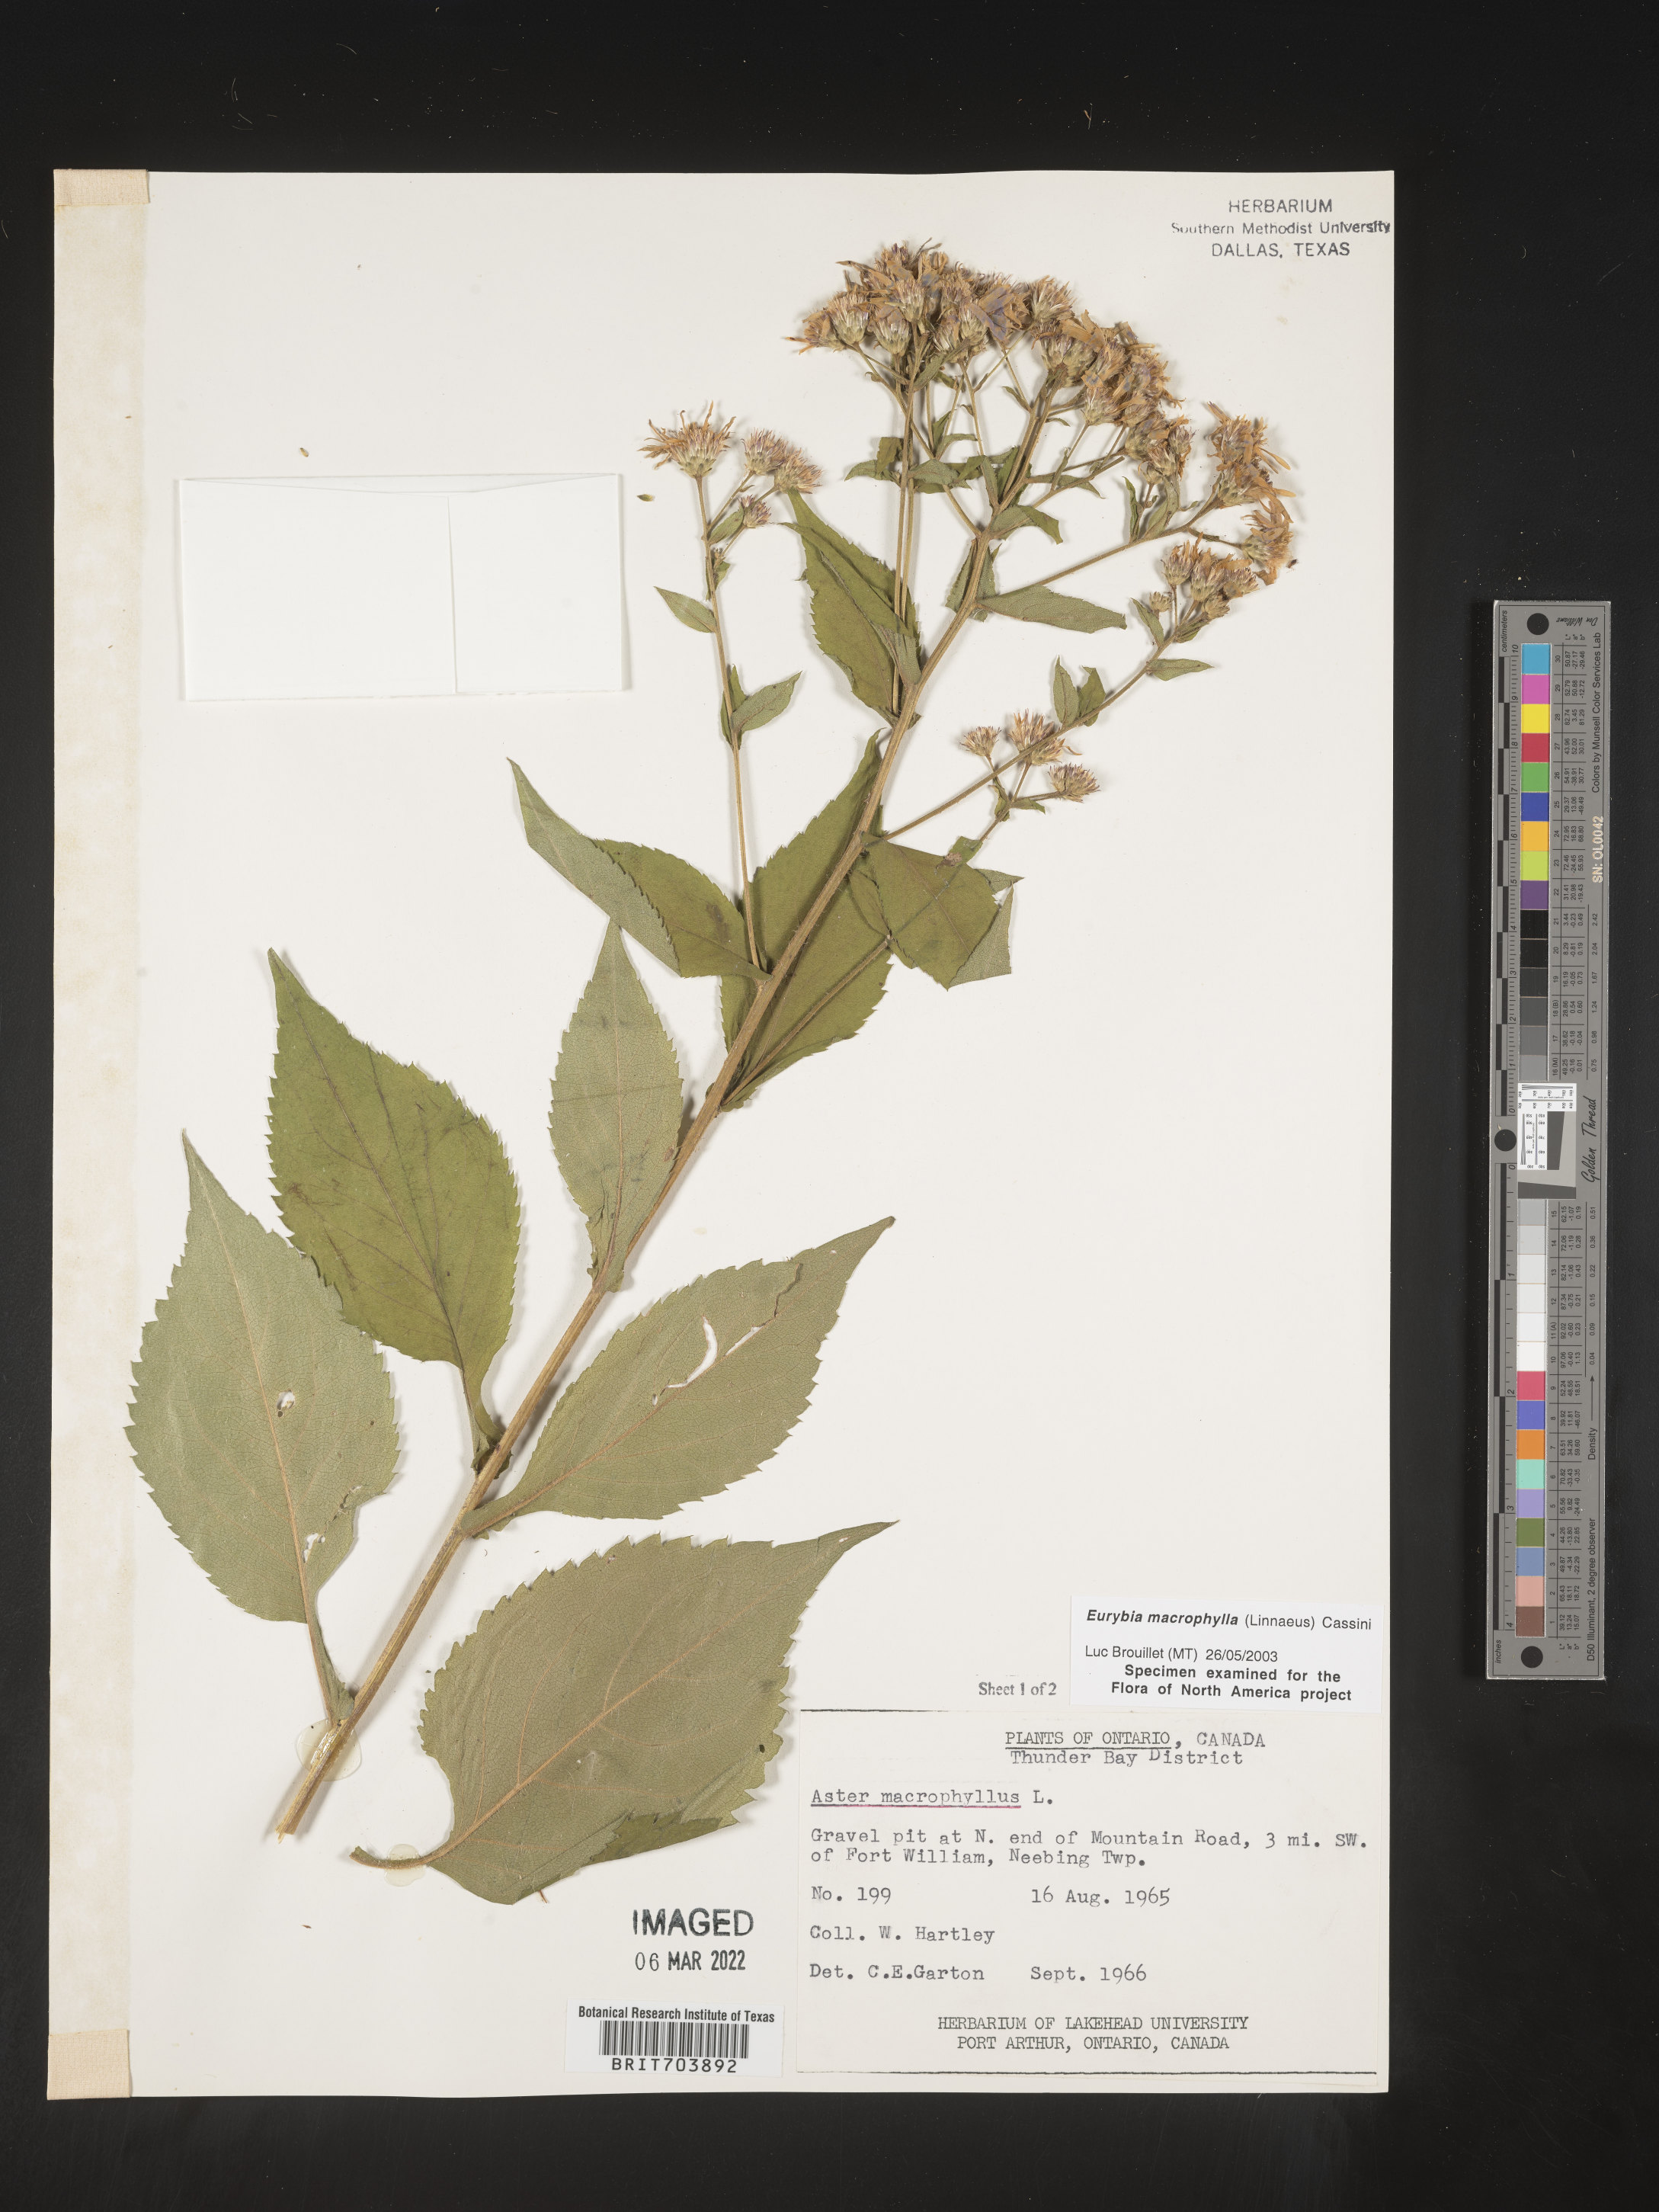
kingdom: Plantae
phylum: Tracheophyta
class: Magnoliopsida
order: Asterales
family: Asteraceae
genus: Eurybia
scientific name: Eurybia macrophylla
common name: Big-leaved aster
